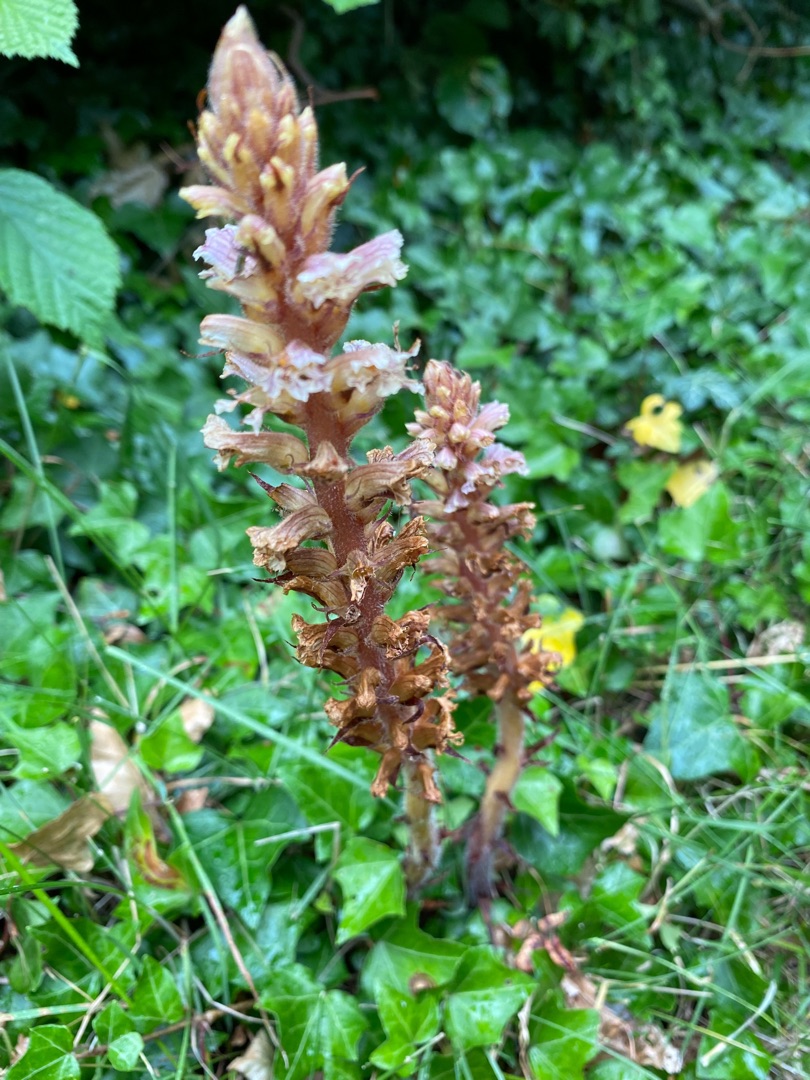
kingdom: Plantae
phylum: Tracheophyta
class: Magnoliopsida
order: Lamiales
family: Orobanchaceae
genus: Orobanche
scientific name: Orobanche hederae
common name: Vedbend-gyvelkvæler
